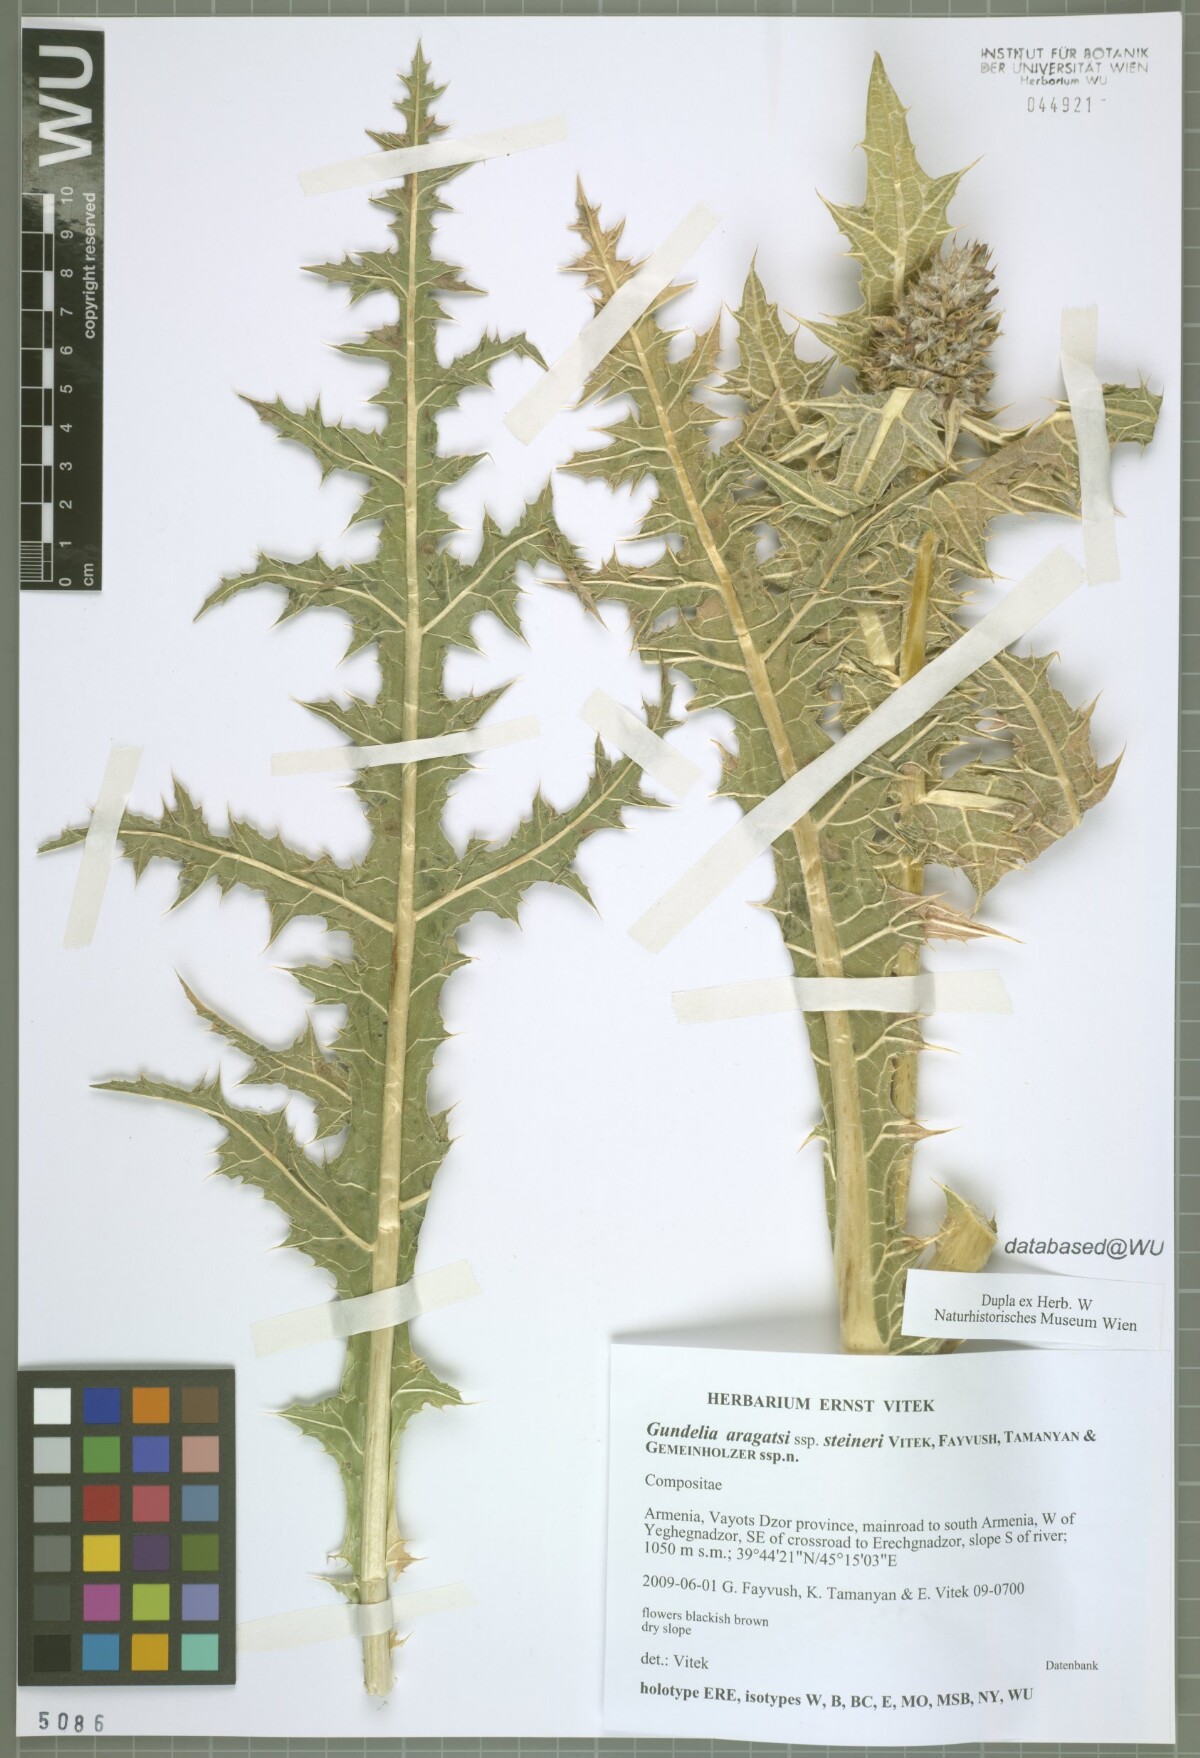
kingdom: Plantae
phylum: Tracheophyta
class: Magnoliopsida
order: Asterales
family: Asteraceae
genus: Gundelia
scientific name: Gundelia aragatsi
